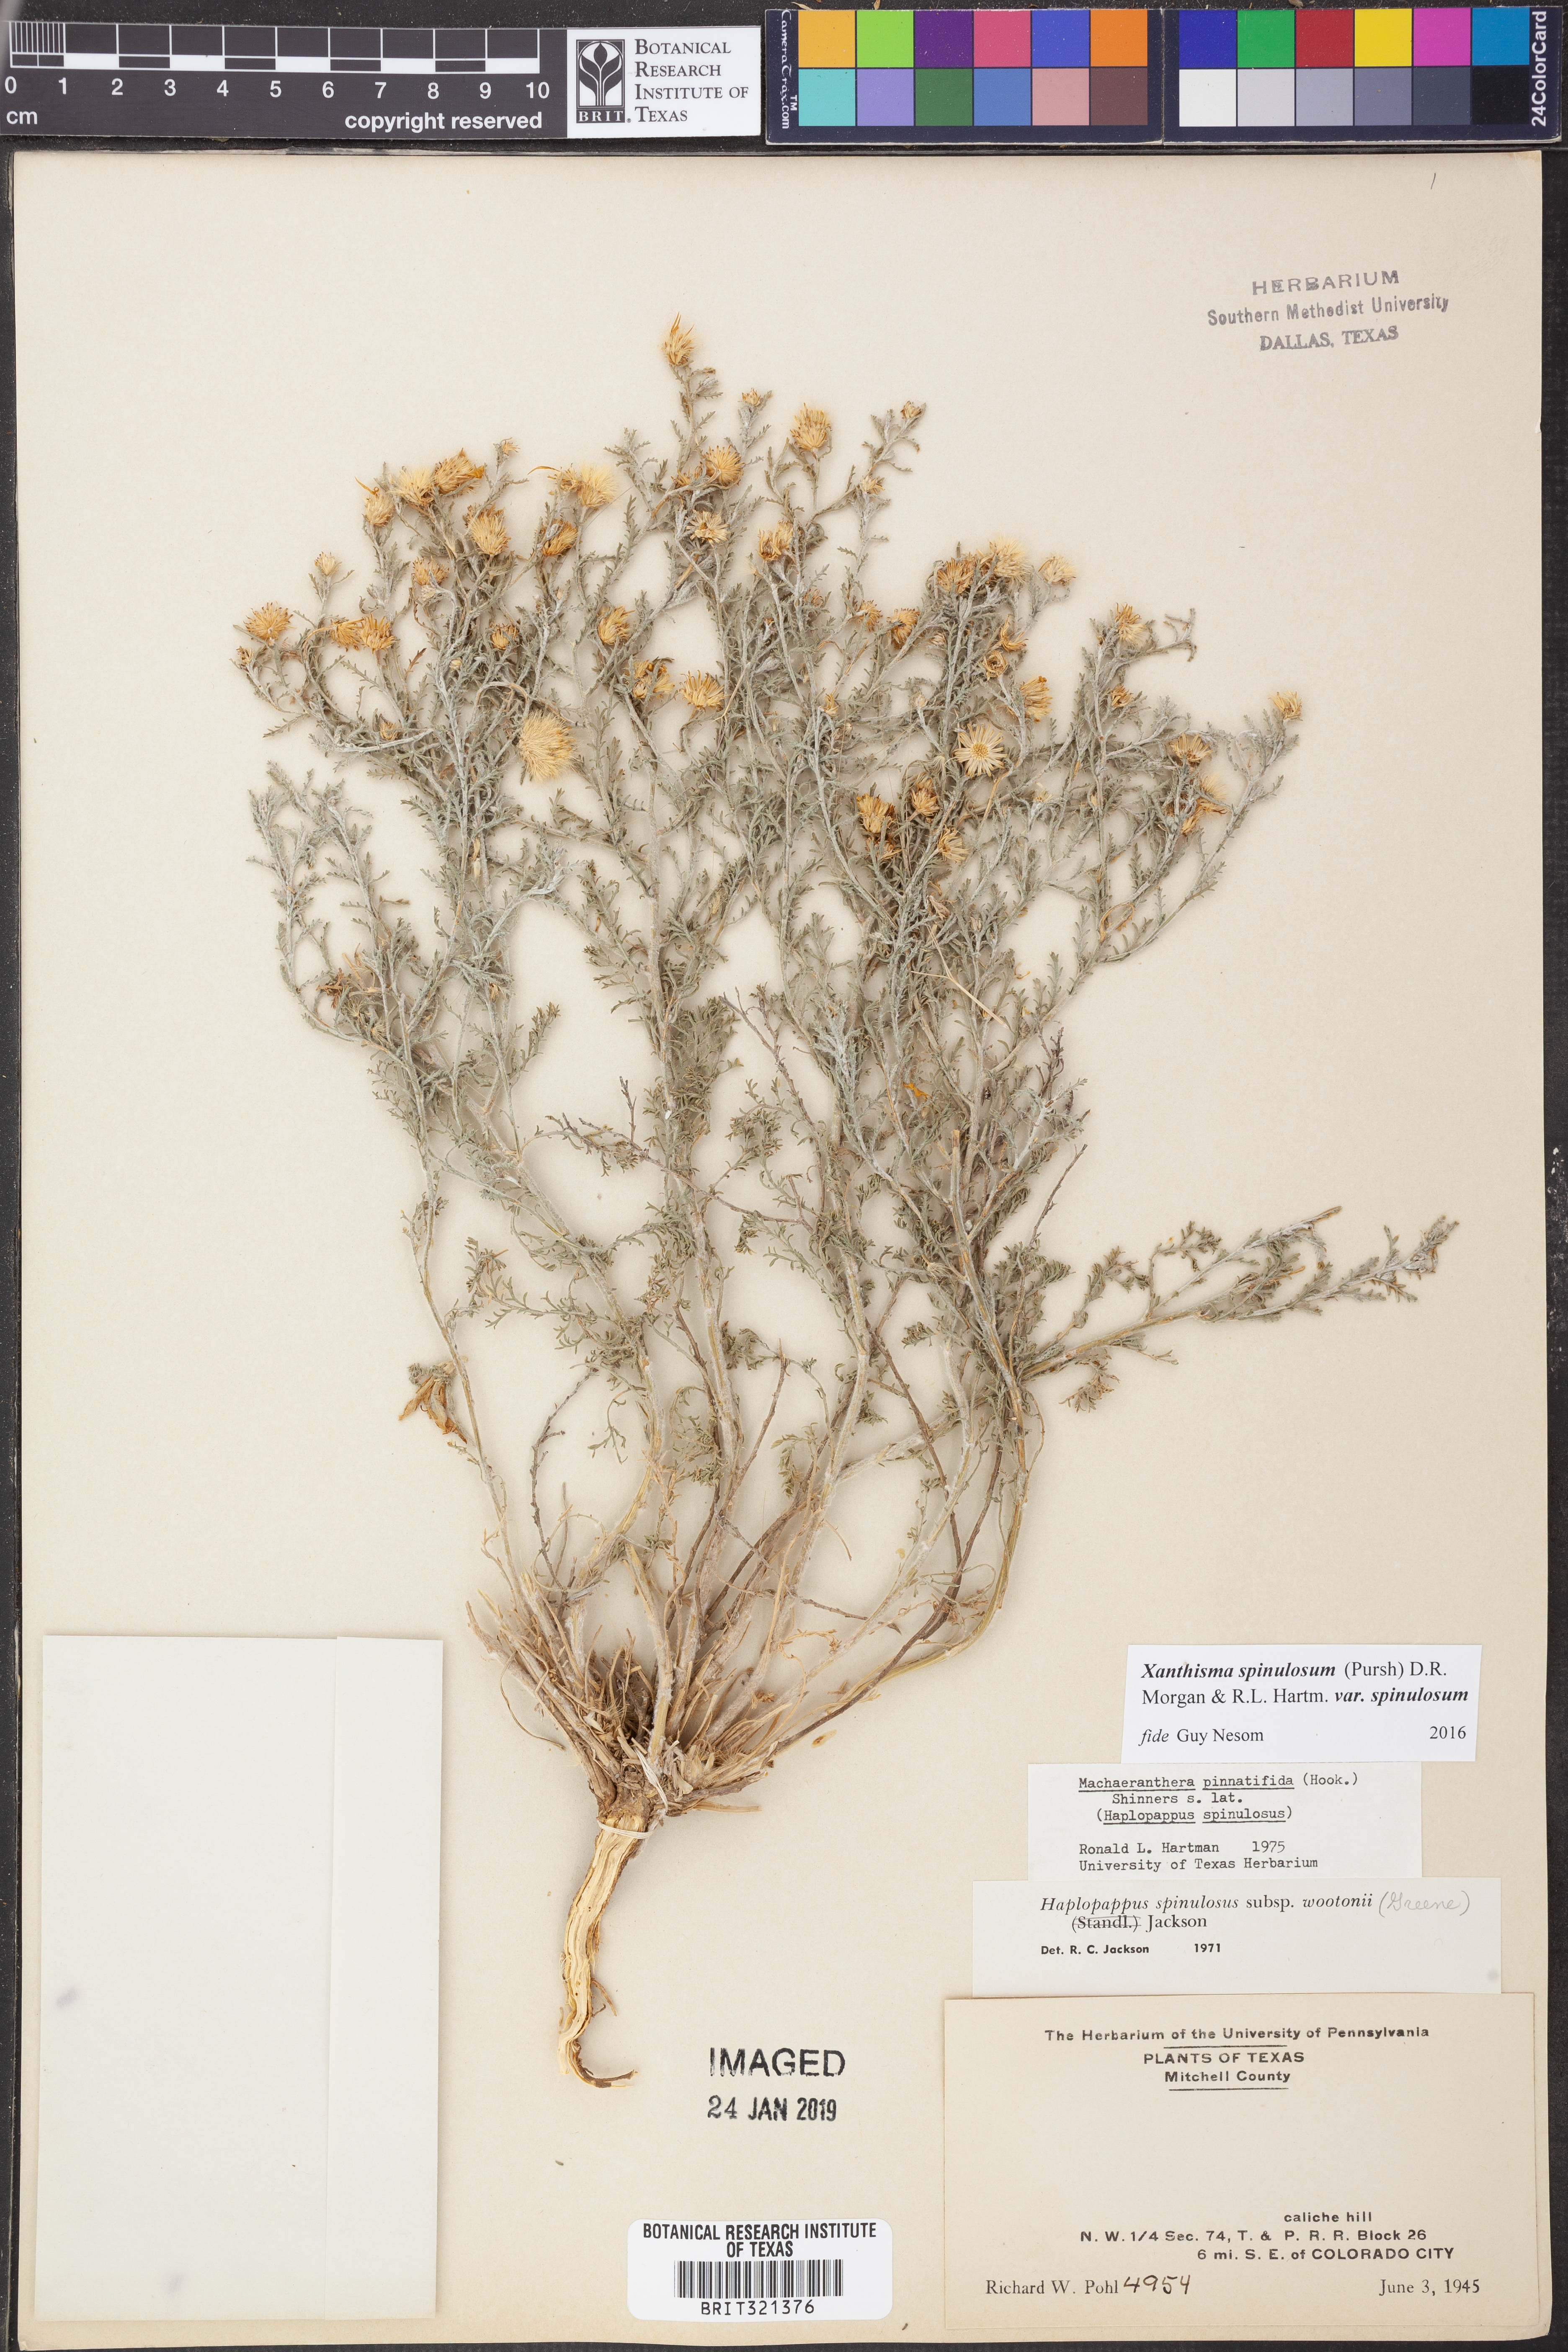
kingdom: Plantae
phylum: Tracheophyta
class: Magnoliopsida
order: Asterales
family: Asteraceae
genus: Xanthisma
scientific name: Xanthisma spinulosum
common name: Spiny goldenweed
